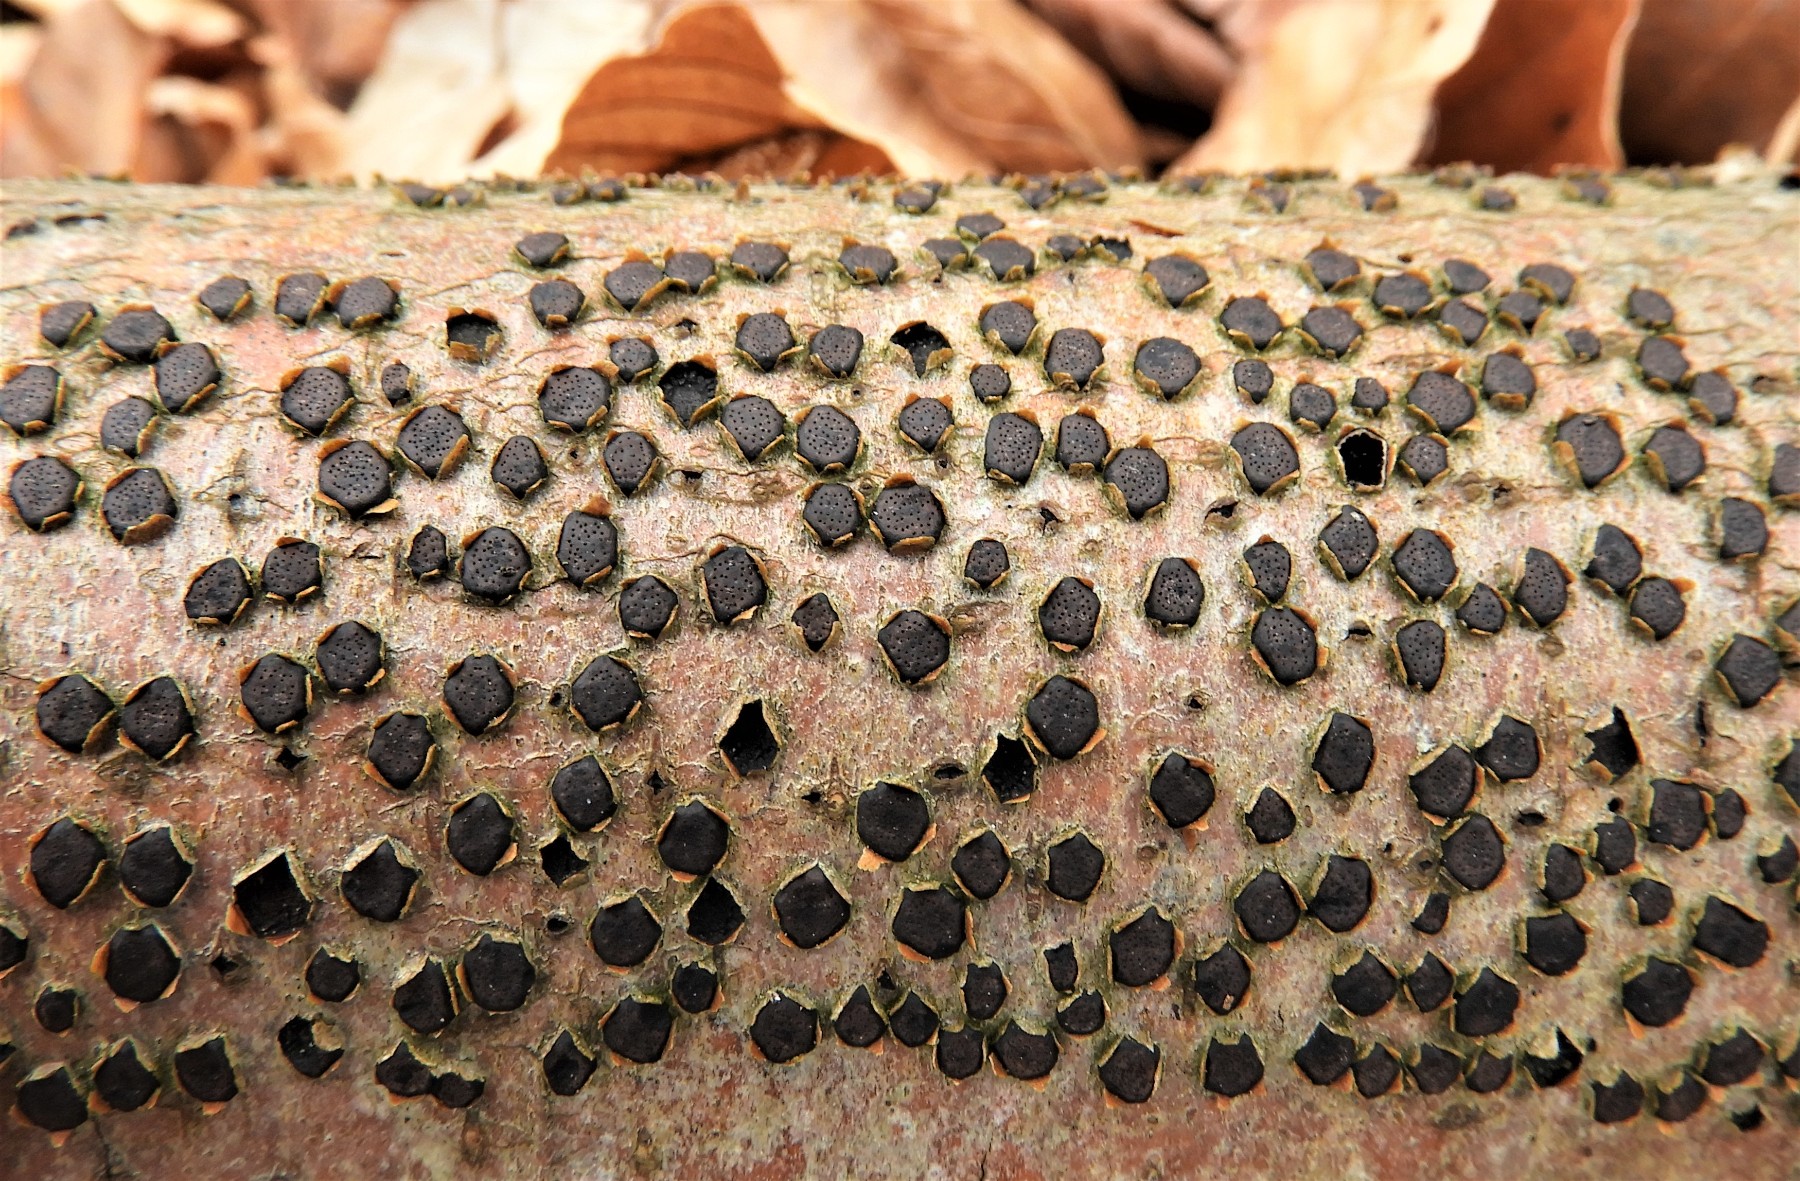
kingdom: Fungi
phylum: Ascomycota
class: Sordariomycetes
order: Xylariales
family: Diatrypaceae
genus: Diatrype
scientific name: Diatrype disciformis
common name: kant-kulskorpe
